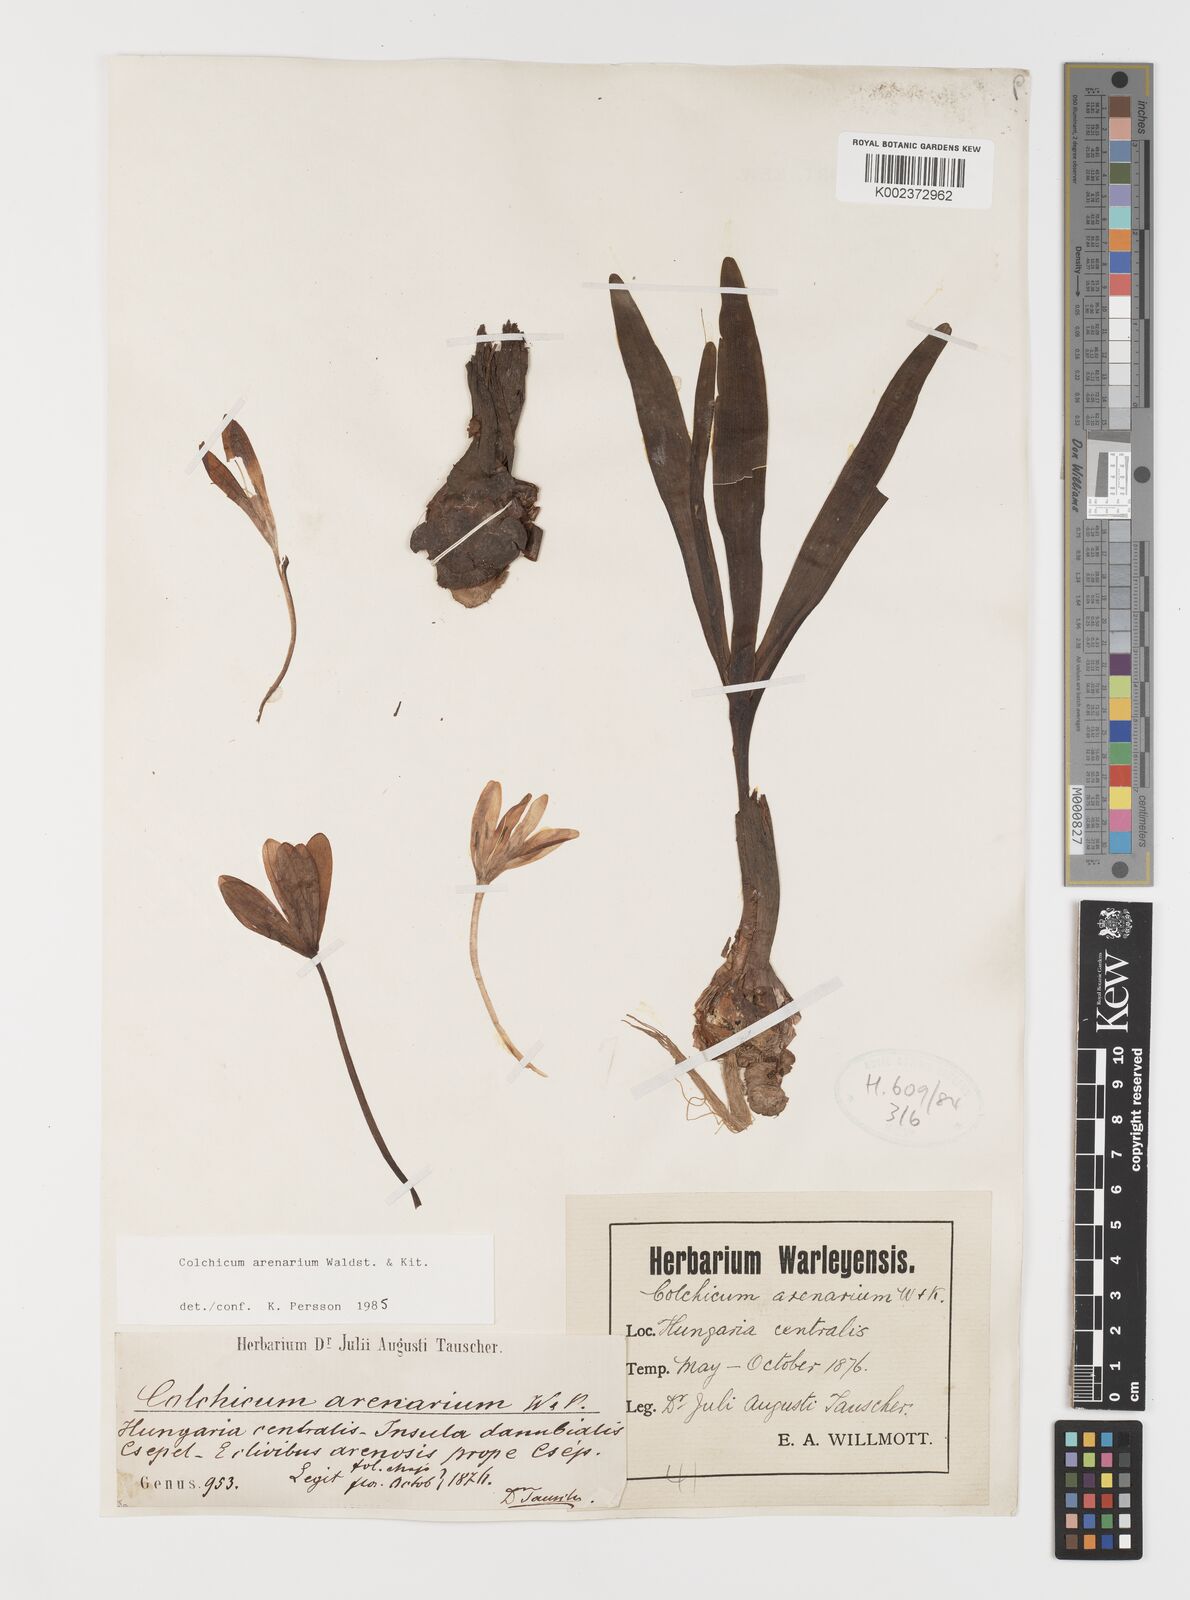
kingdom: Plantae
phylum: Tracheophyta
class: Liliopsida
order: Liliales
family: Colchicaceae
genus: Colchicum
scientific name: Colchicum arenarium
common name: Sand saffron
